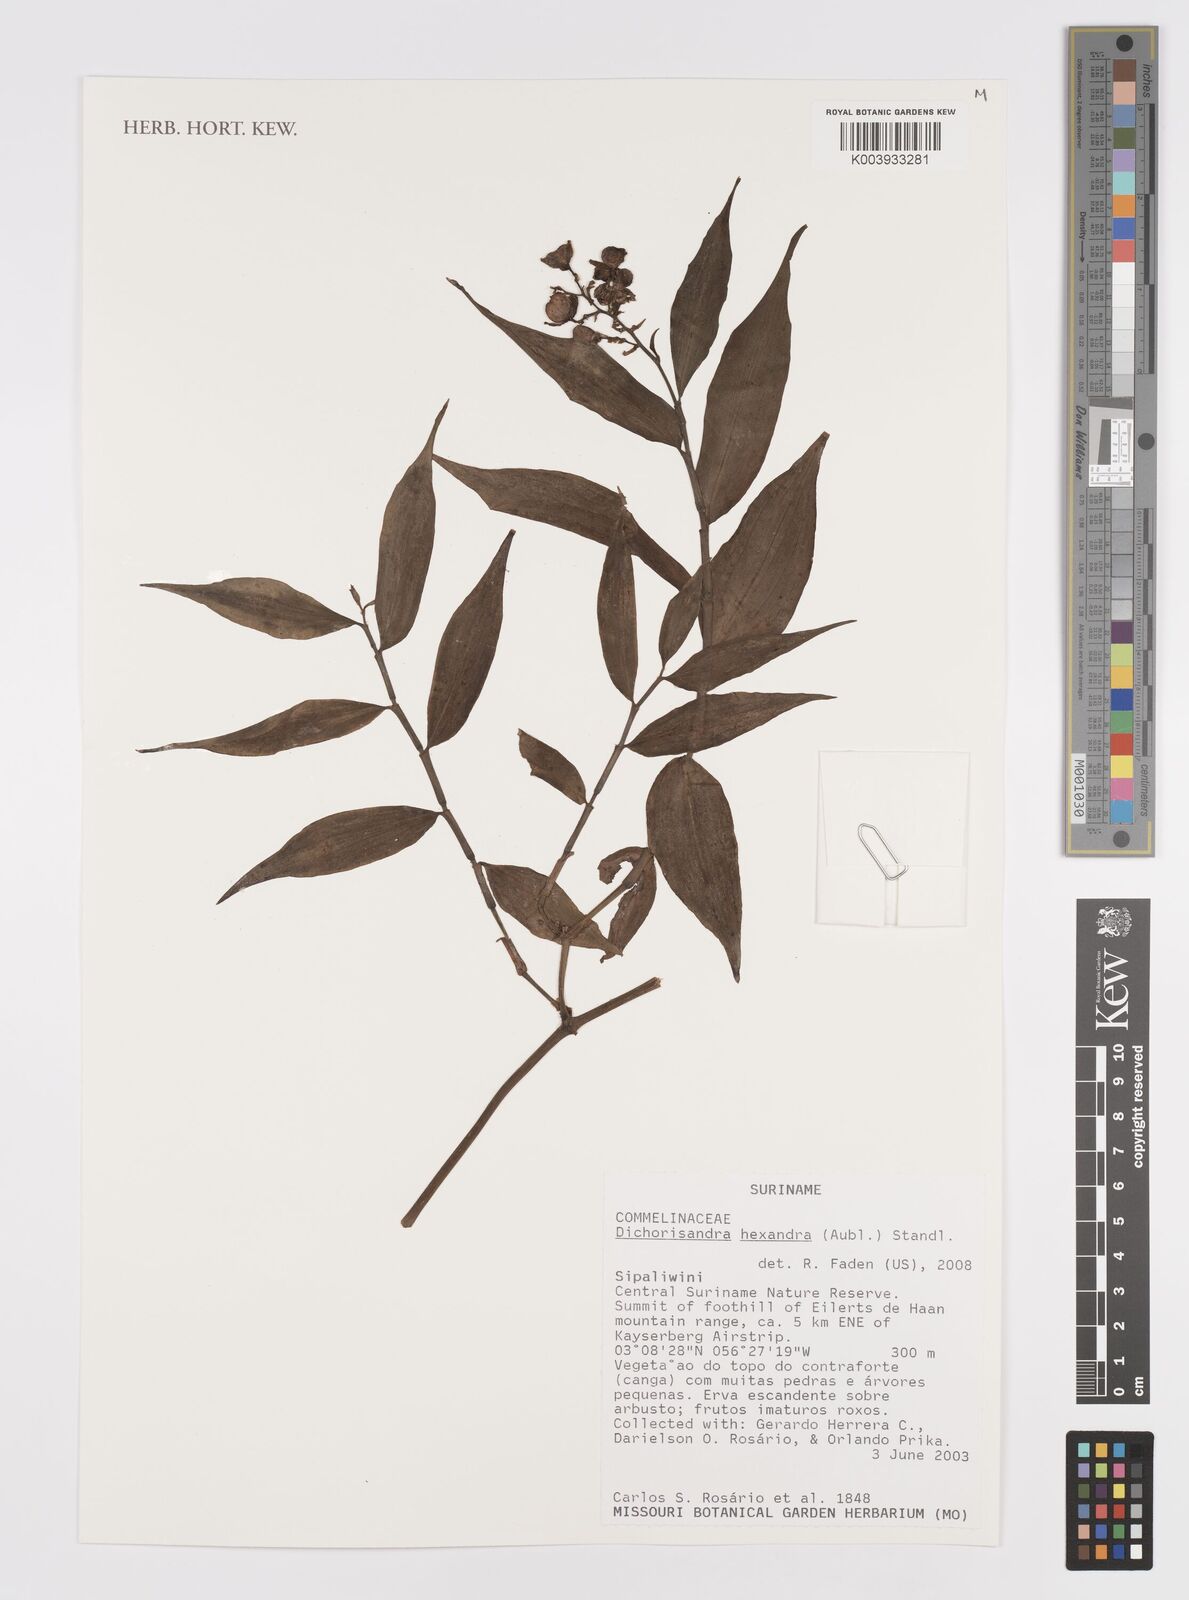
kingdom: Plantae
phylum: Tracheophyta
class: Liliopsida
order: Commelinales
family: Commelinaceae
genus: Dichorisandra
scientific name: Dichorisandra hexandra
